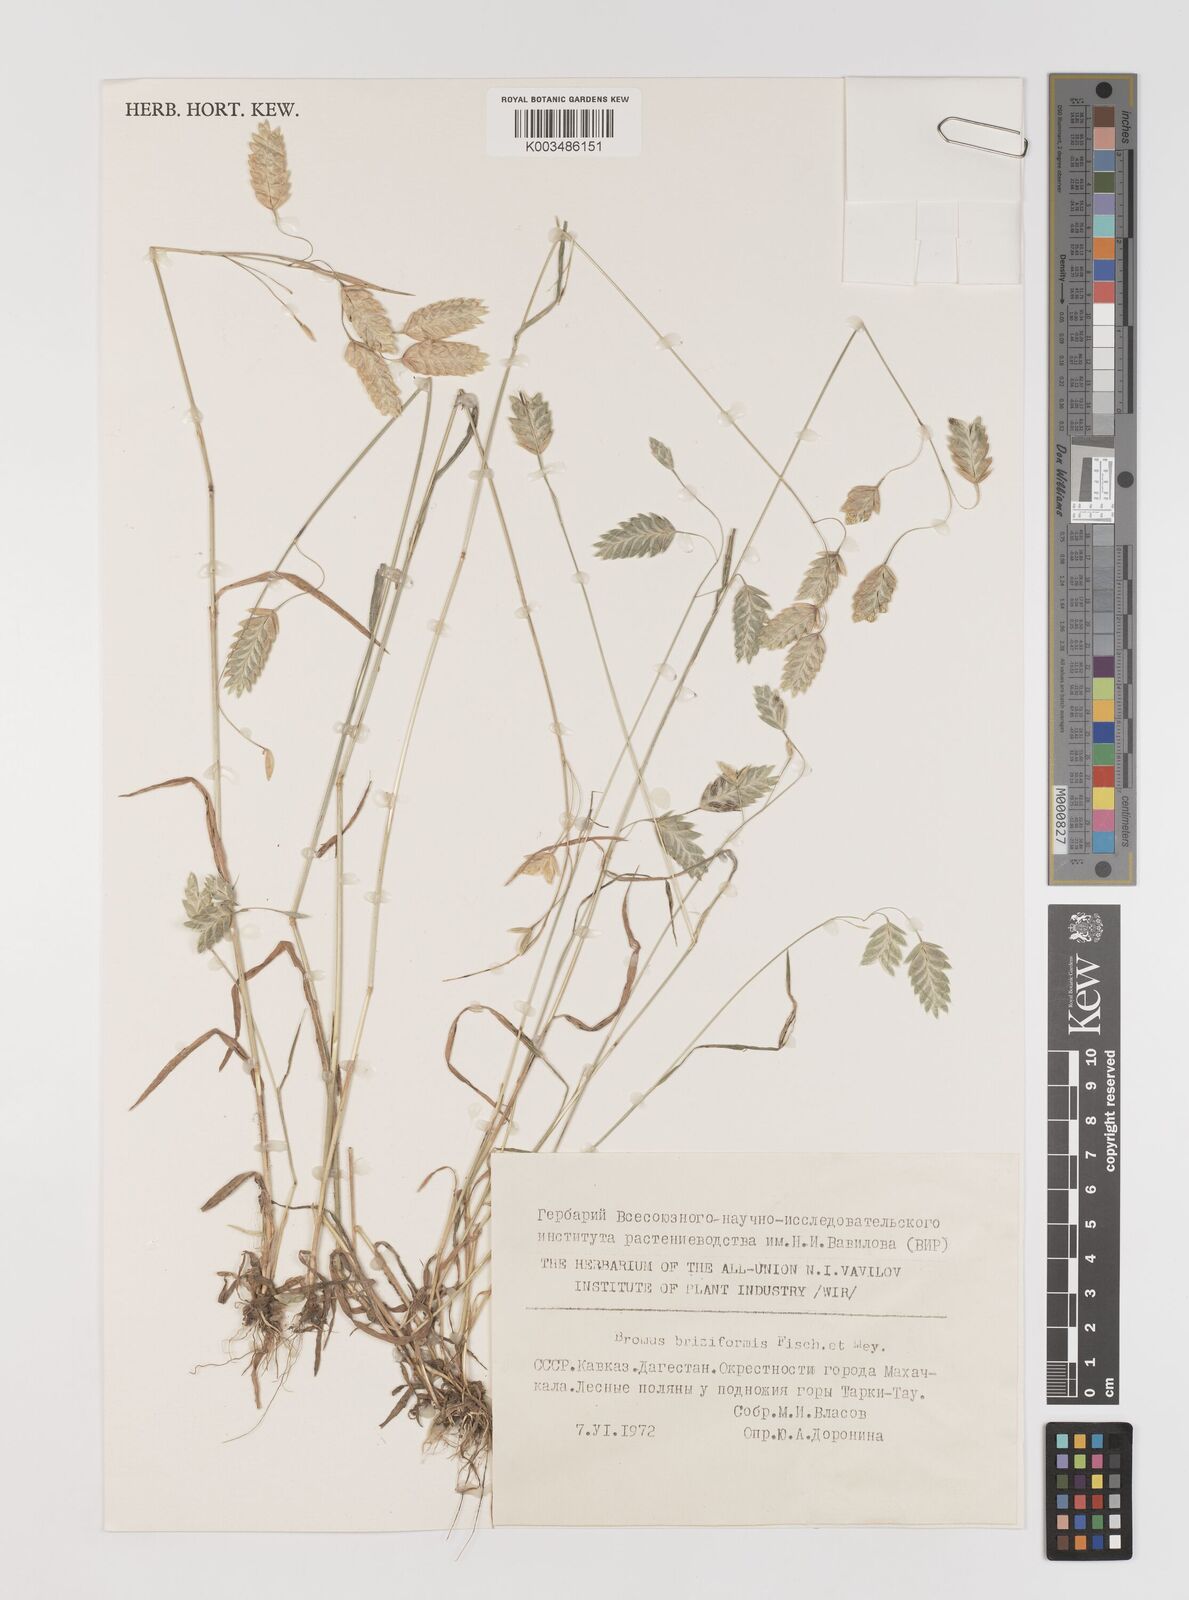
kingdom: Plantae
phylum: Tracheophyta
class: Liliopsida
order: Poales
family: Poaceae
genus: Bromus
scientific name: Bromus briziformis
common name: Rattlesnake brome
